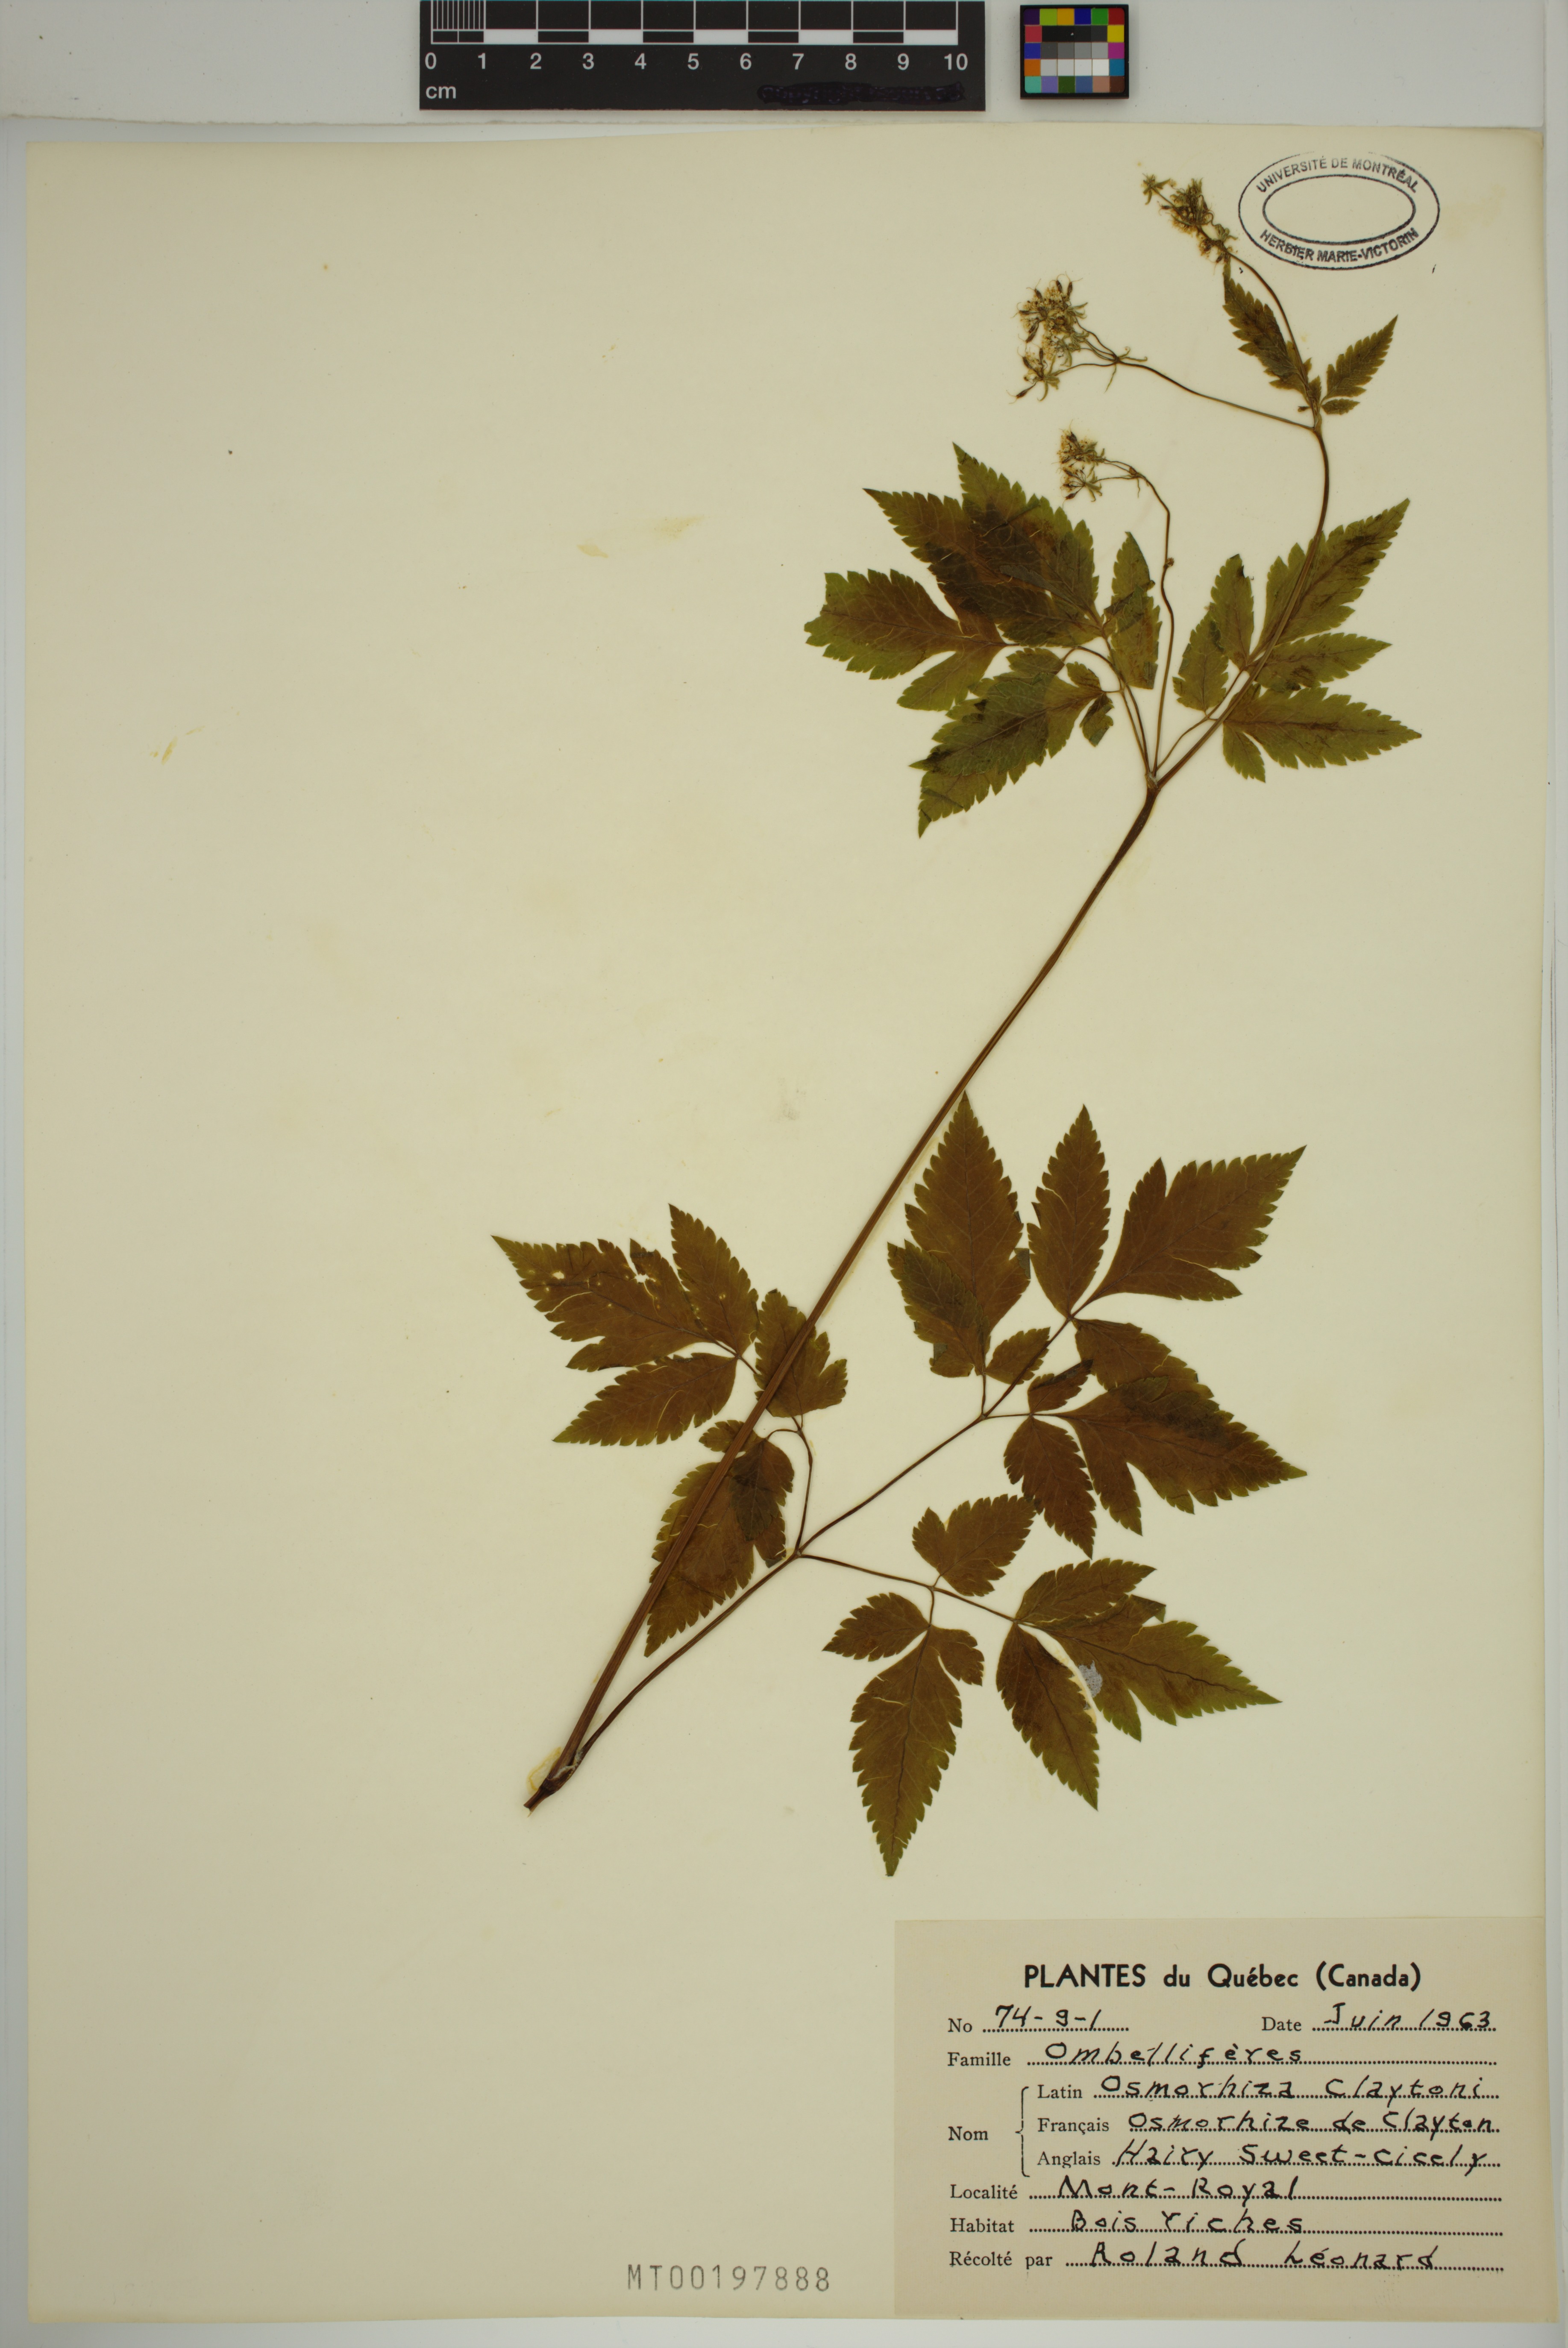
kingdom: Plantae
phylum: Tracheophyta
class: Magnoliopsida
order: Apiales
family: Apiaceae
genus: Osmorhiza
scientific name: Osmorhiza claytonii
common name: Hairy sweet cicely
